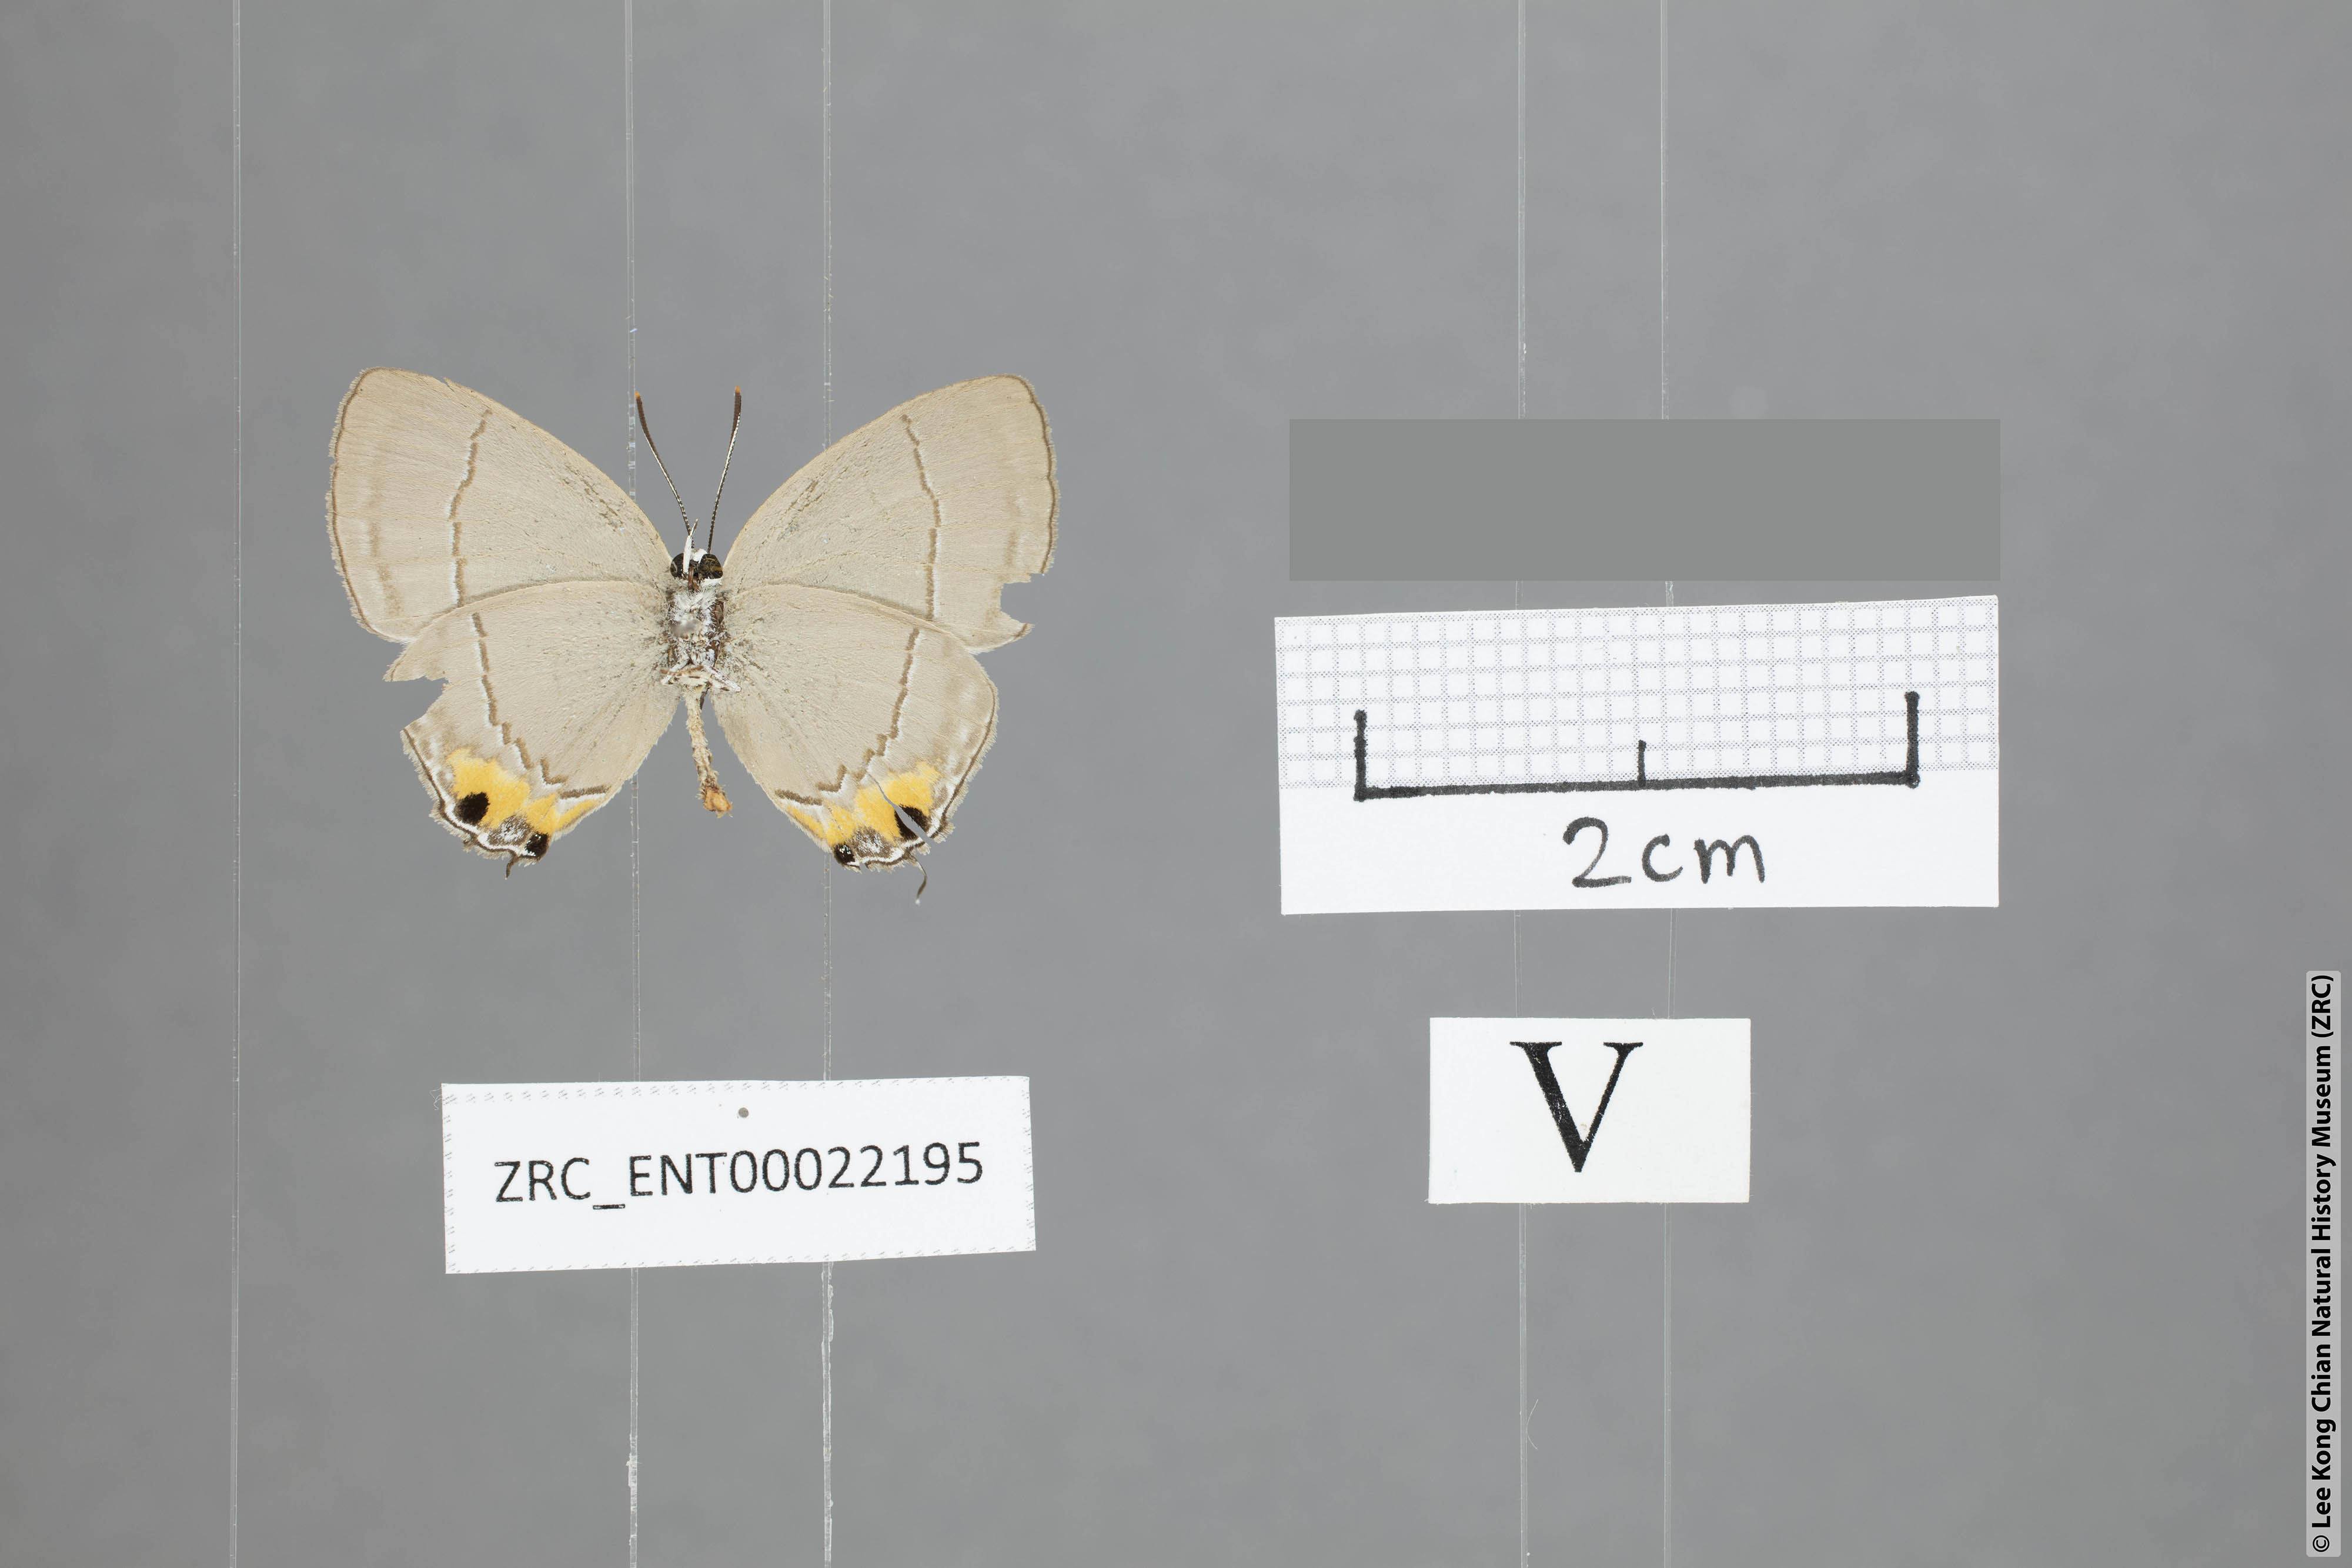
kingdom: Animalia
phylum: Arthropoda
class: Insecta
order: Lepidoptera
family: Lycaenidae
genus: Tajuria
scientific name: Tajuria isaeus
